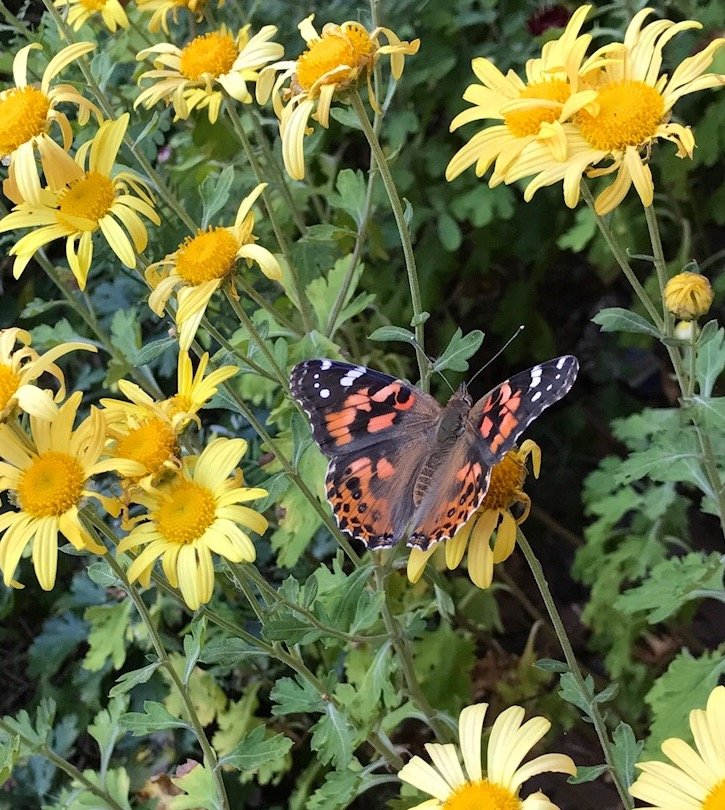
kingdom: Animalia
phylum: Arthropoda
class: Insecta
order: Lepidoptera
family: Nymphalidae
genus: Vanessa
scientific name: Vanessa cardui
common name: Painted Lady
